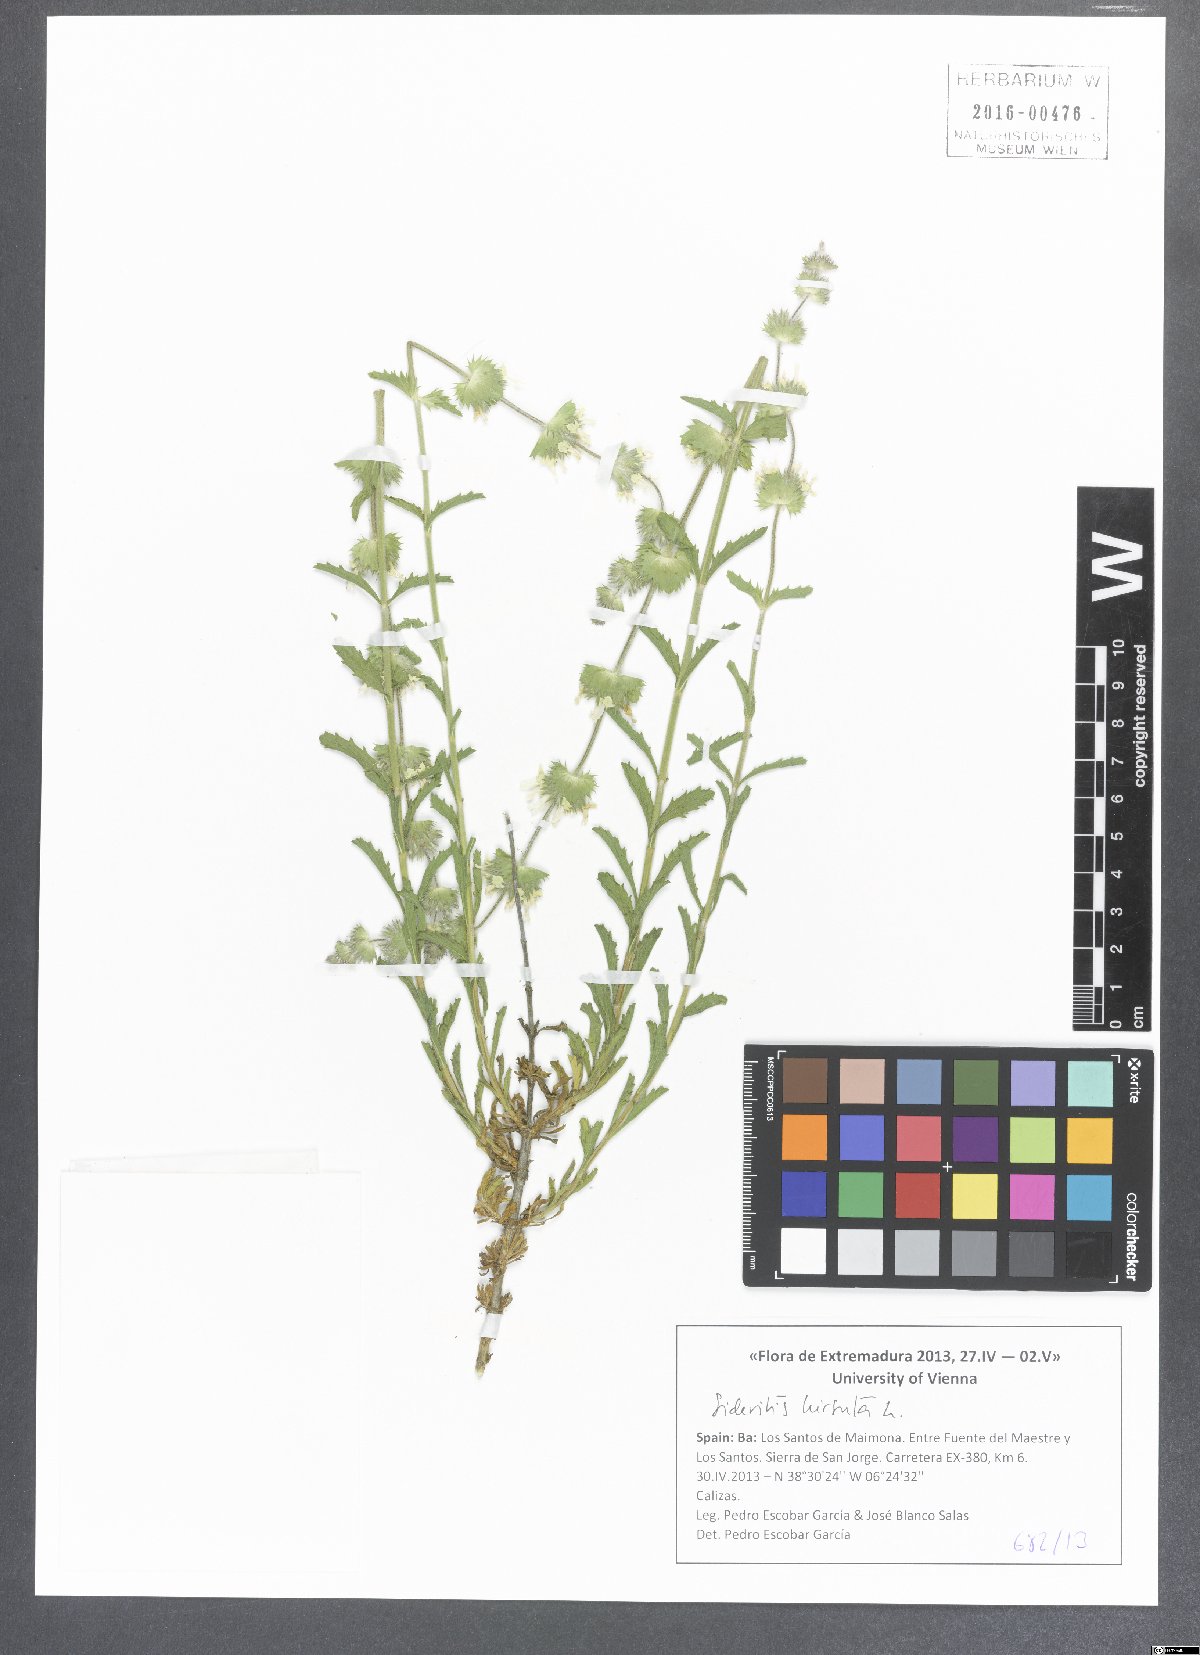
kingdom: Plantae
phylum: Tracheophyta
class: Magnoliopsida
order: Lamiales
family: Lamiaceae
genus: Sideritis
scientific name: Sideritis hirsuta
